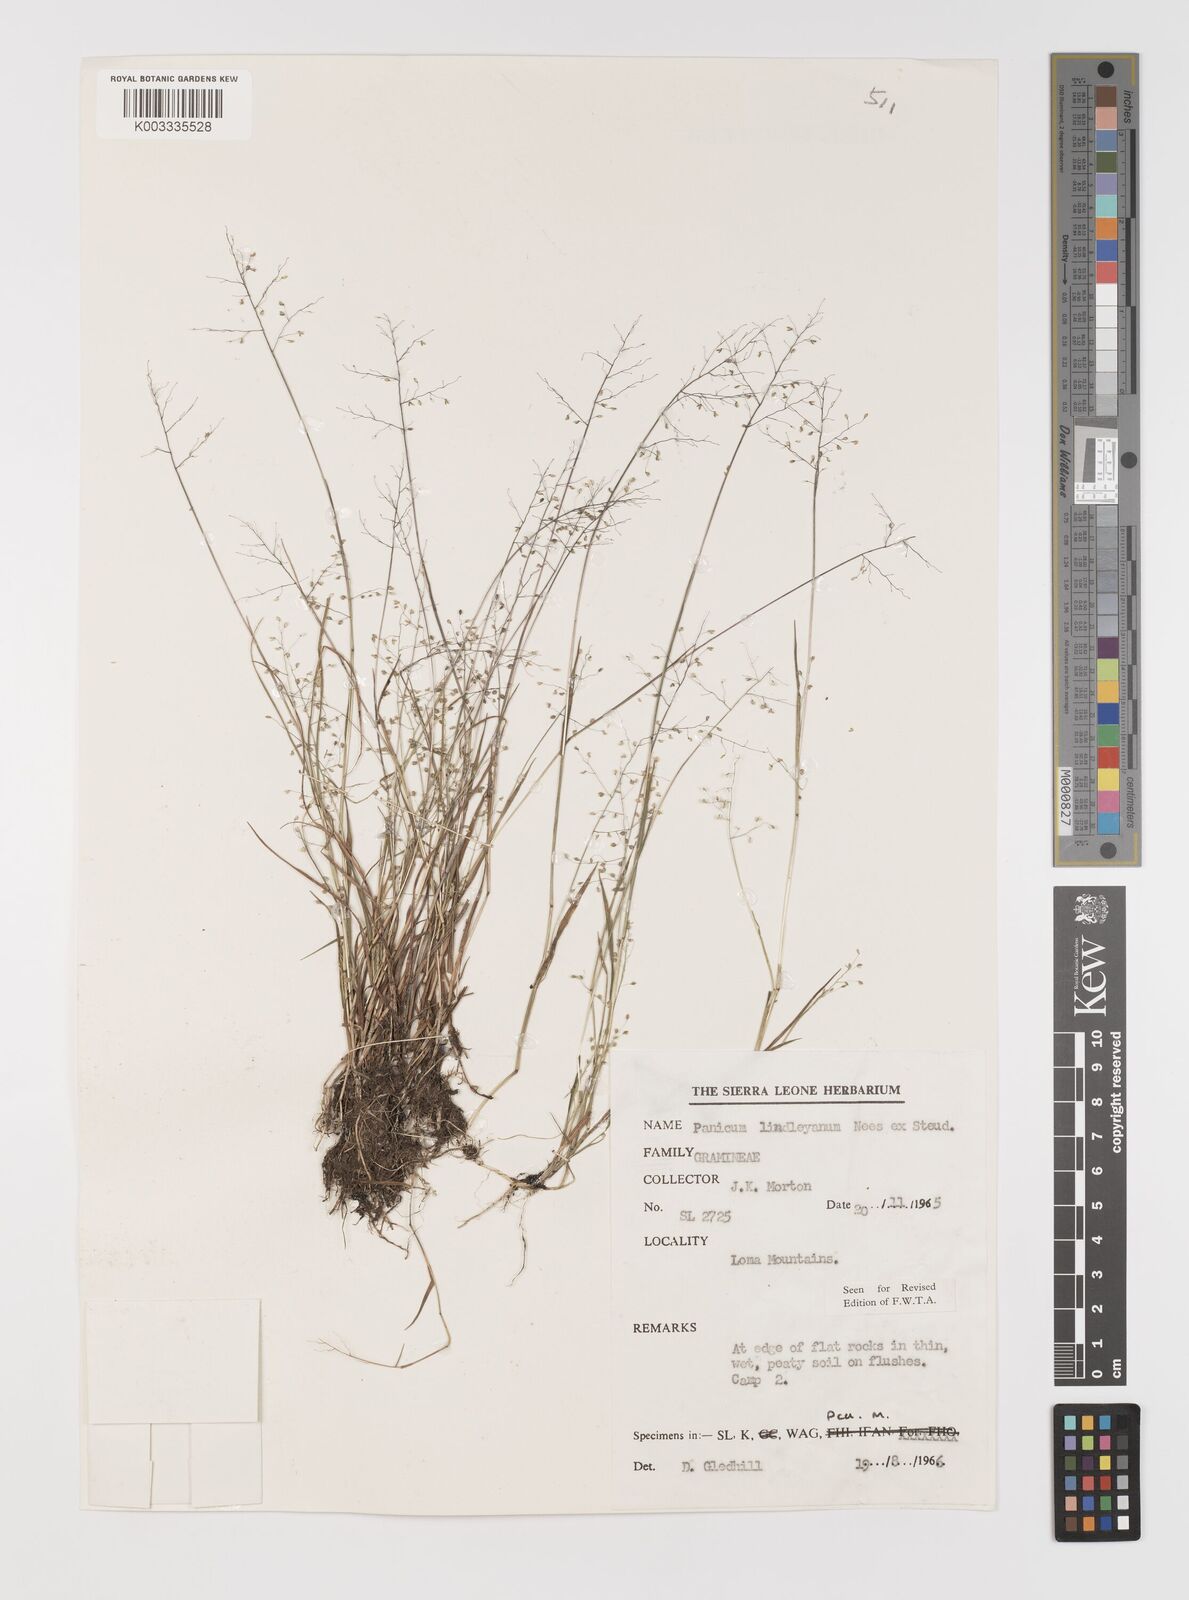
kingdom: Plantae
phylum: Tracheophyta
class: Liliopsida
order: Poales
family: Poaceae
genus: Trichanthecium
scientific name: Trichanthecium tenellum
